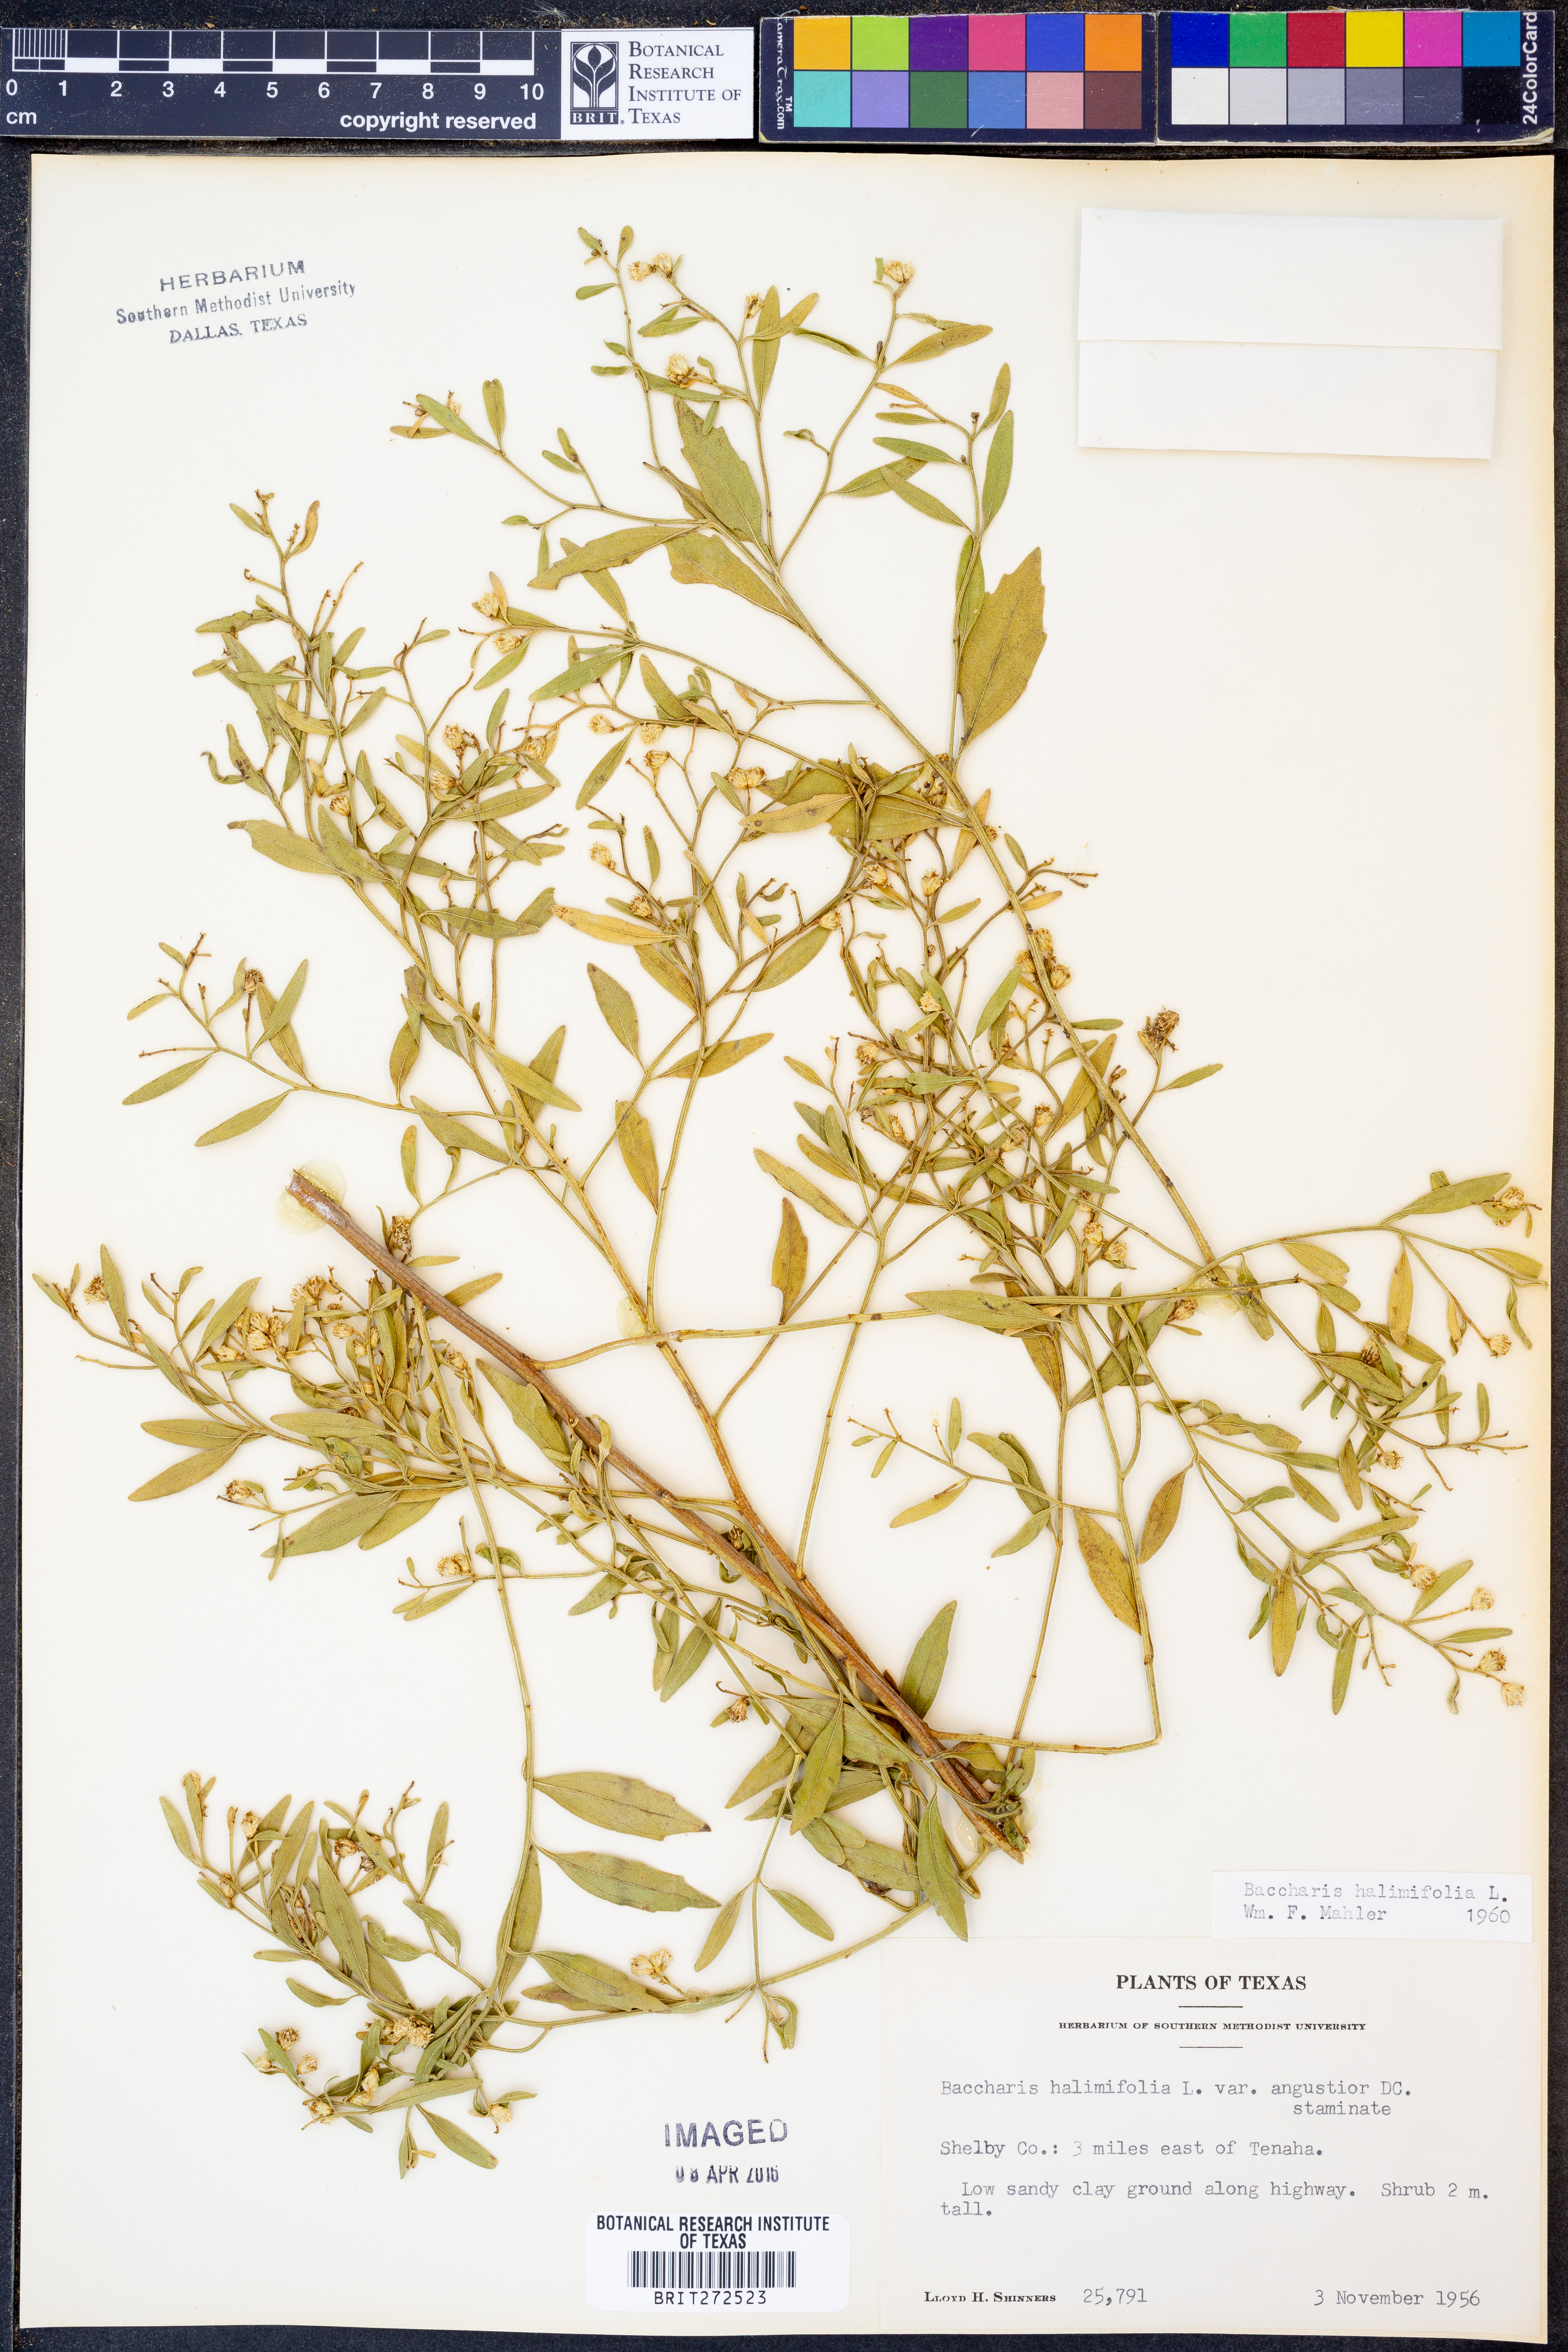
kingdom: Plantae
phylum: Tracheophyta
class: Magnoliopsida
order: Asterales
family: Asteraceae
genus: Nidorella
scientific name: Nidorella ivifolia
